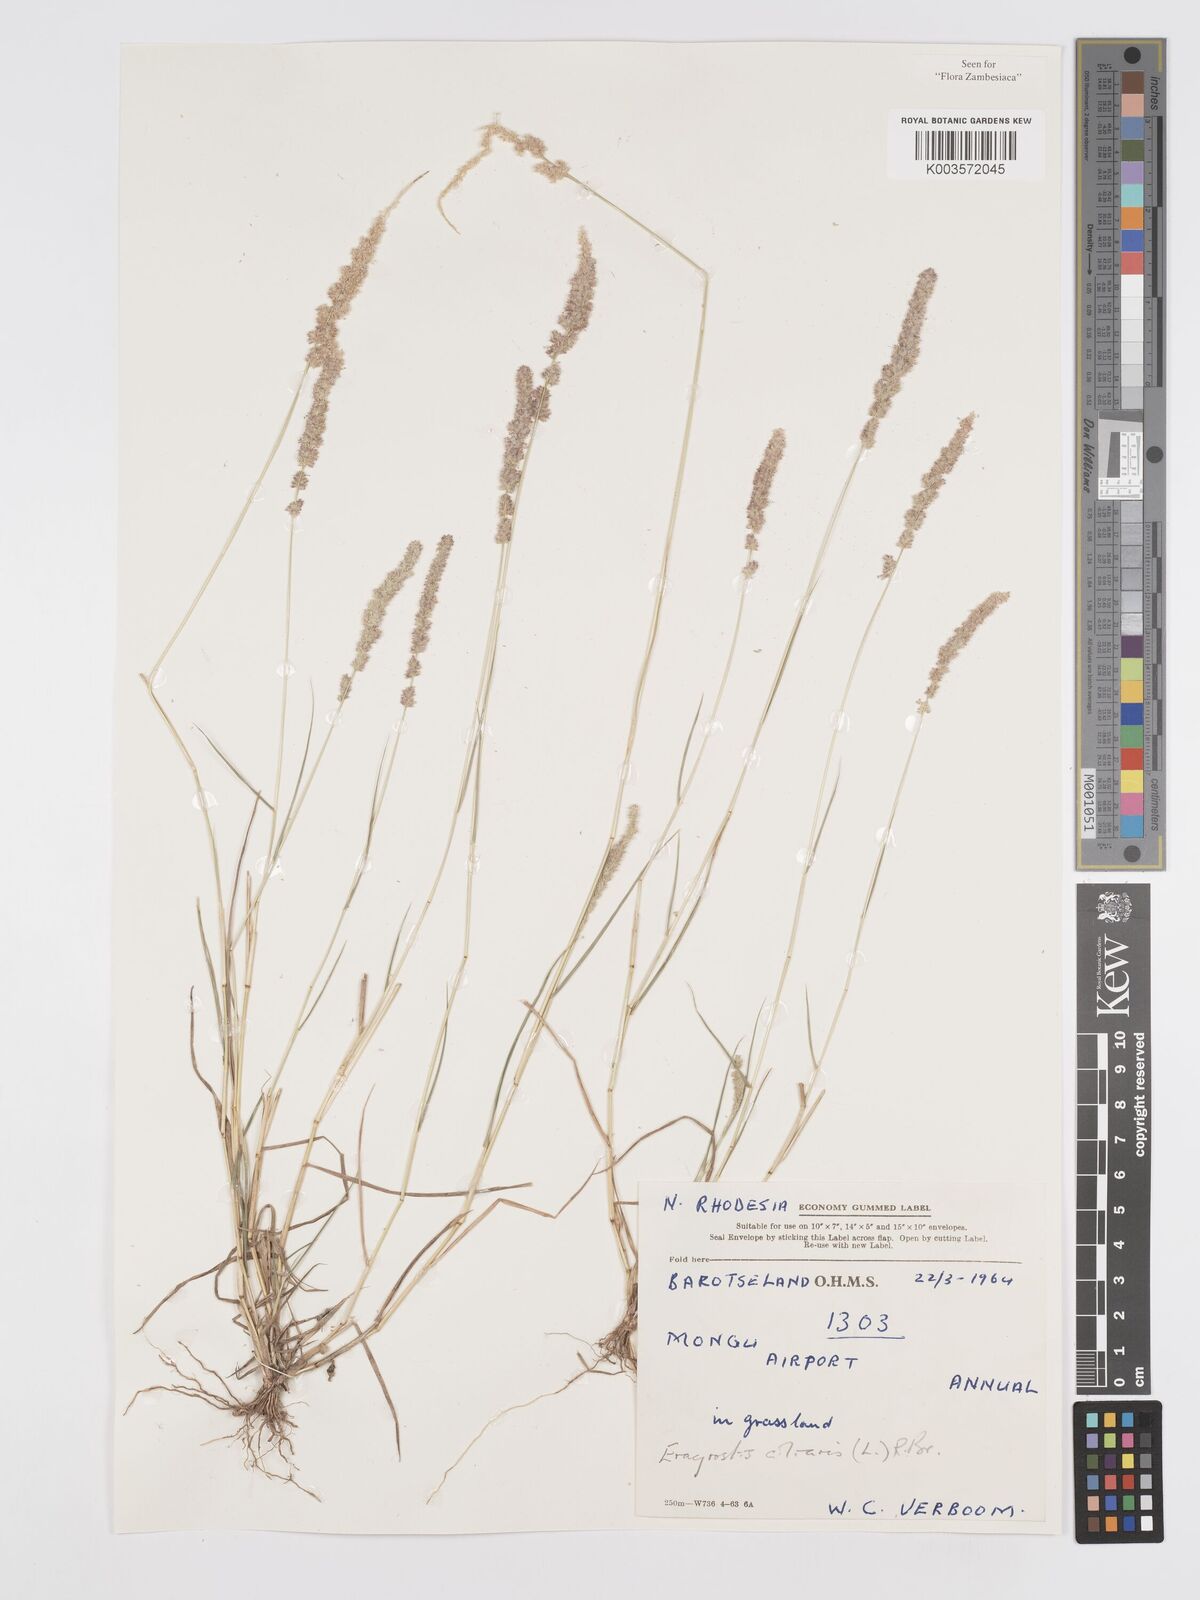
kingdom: Plantae
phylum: Tracheophyta
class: Liliopsida
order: Poales
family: Poaceae
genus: Eragrostis
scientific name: Eragrostis ciliaris
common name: Gophertail lovegrass
